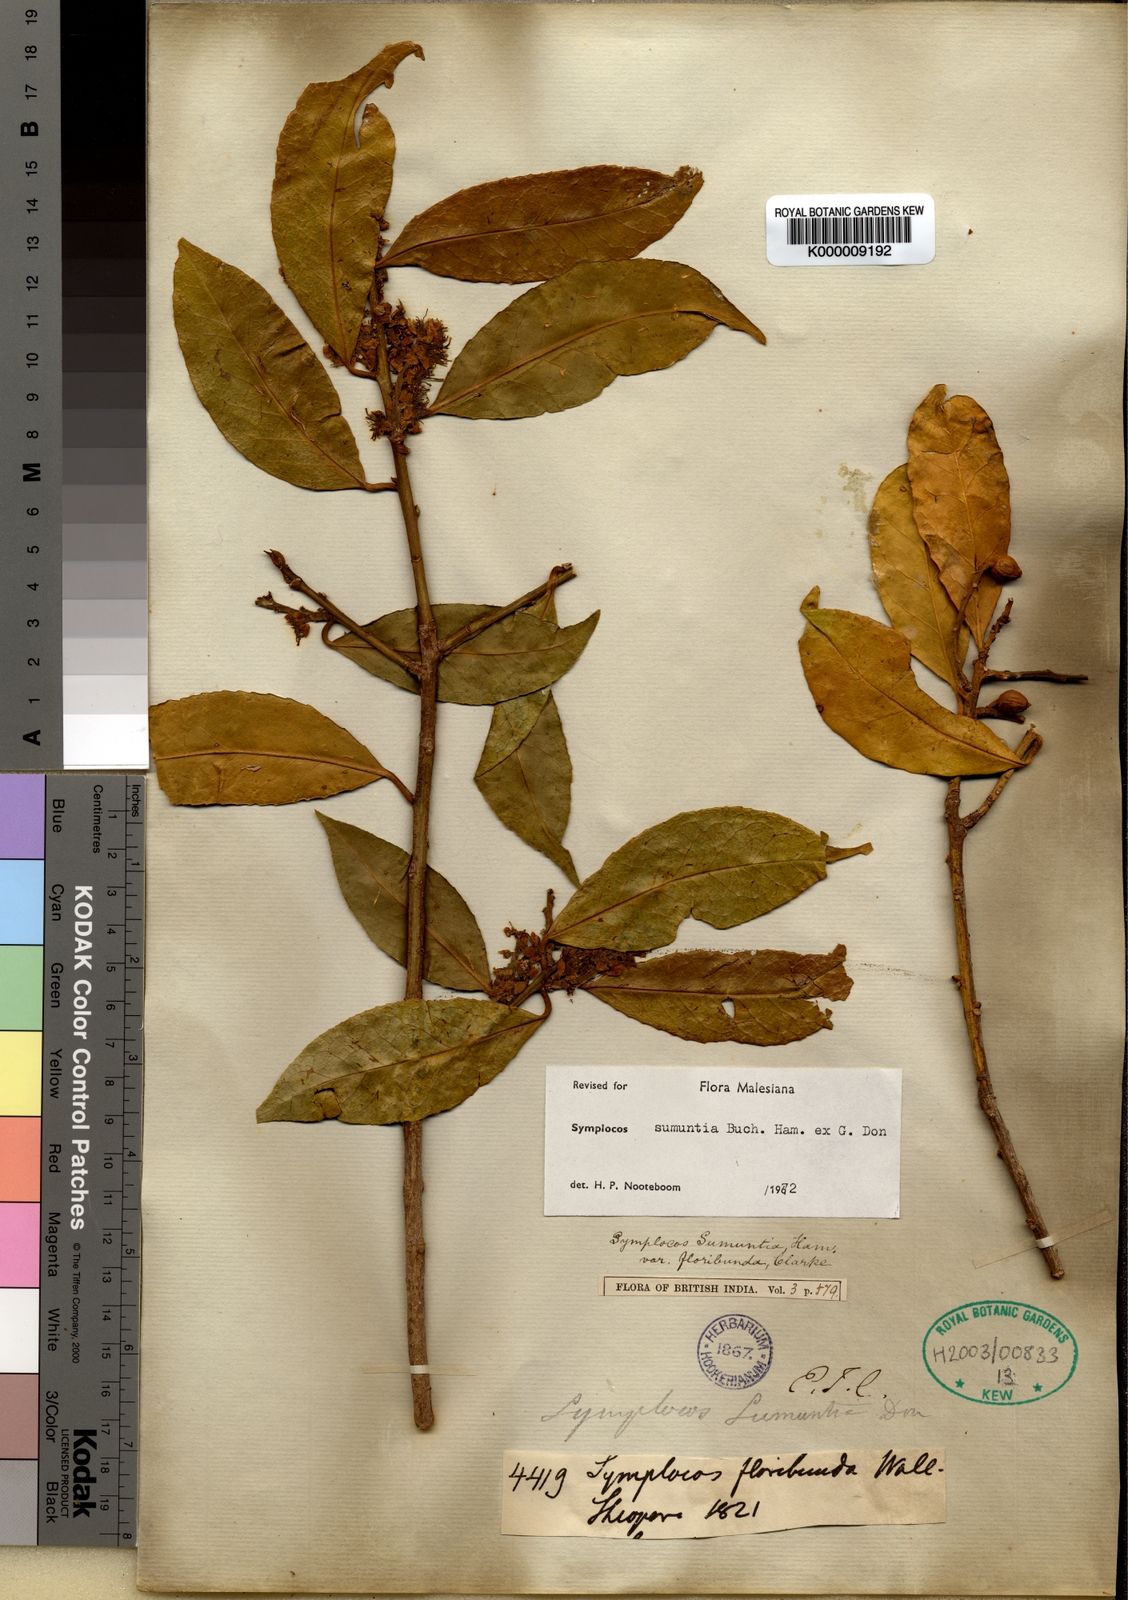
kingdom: Plantae
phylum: Tracheophyta
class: Magnoliopsida
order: Ericales
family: Symplocaceae
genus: Symplocos
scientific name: Symplocos sumuntia
